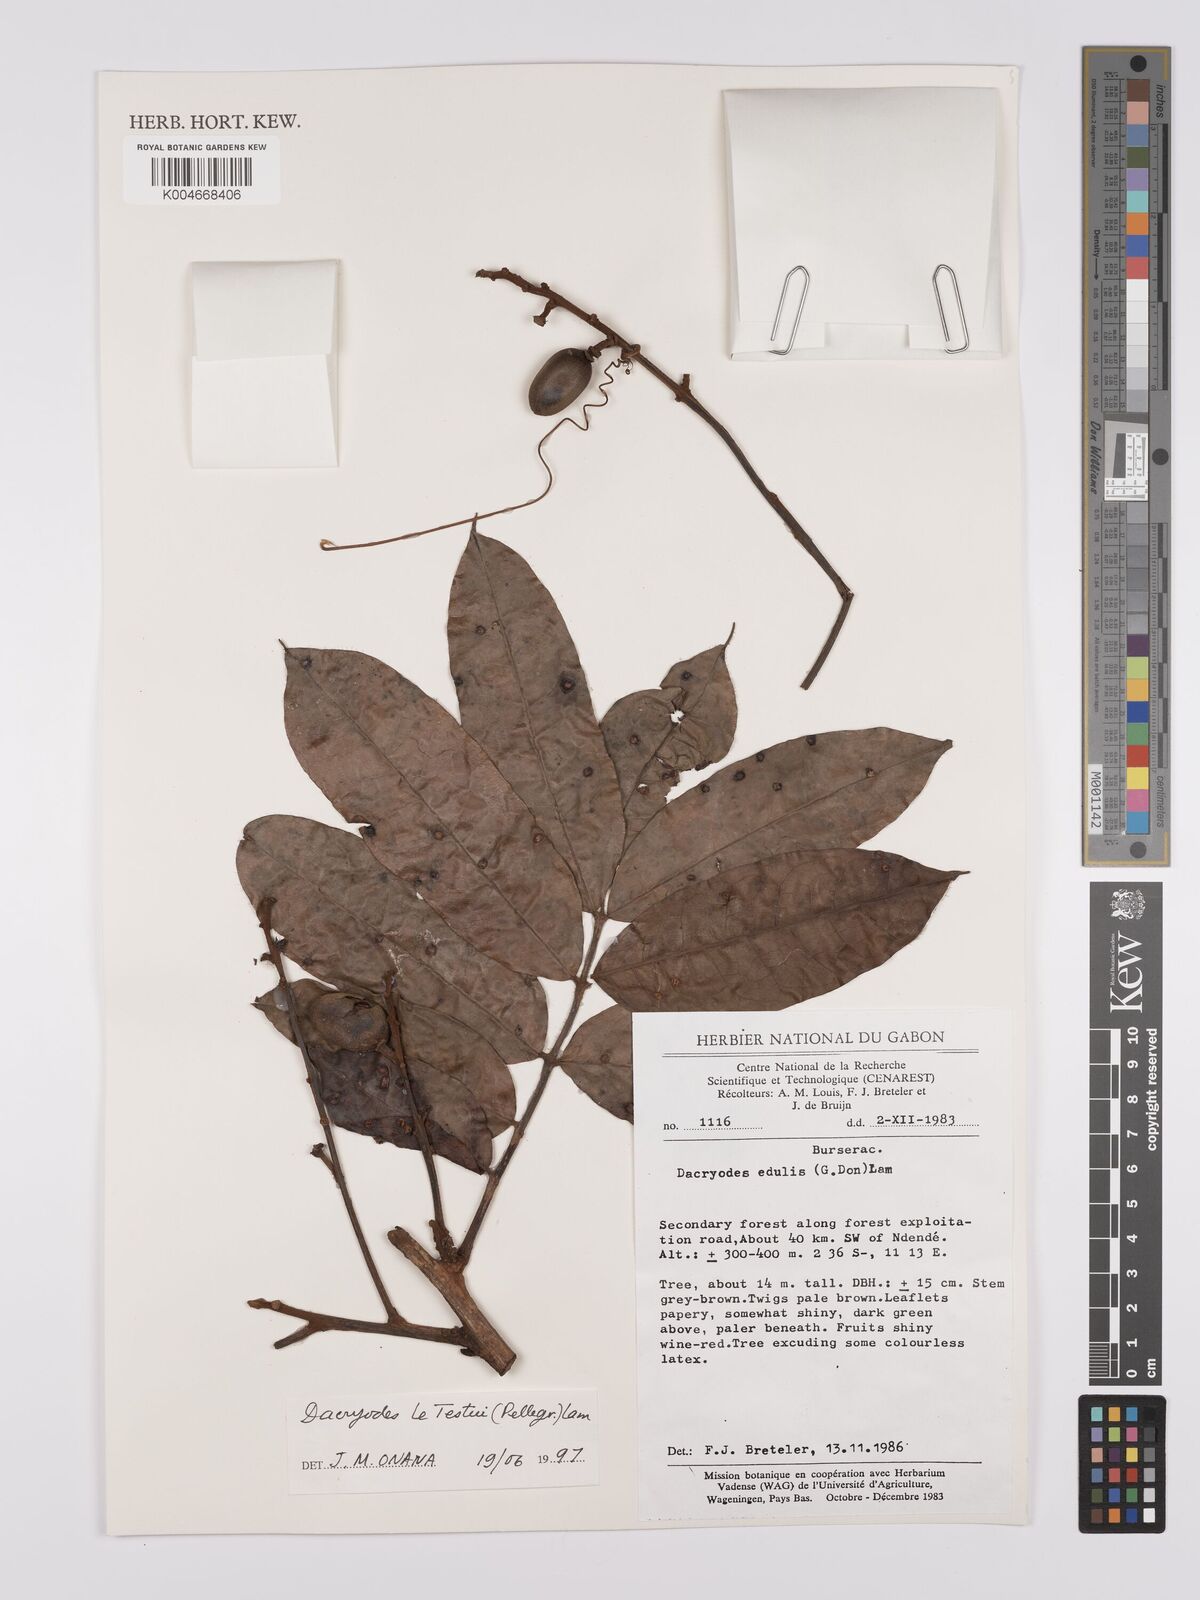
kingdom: Plantae
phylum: Tracheophyta
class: Magnoliopsida
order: Sapindales
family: Burseraceae
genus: Pachylobus
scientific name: Pachylobus letestui
